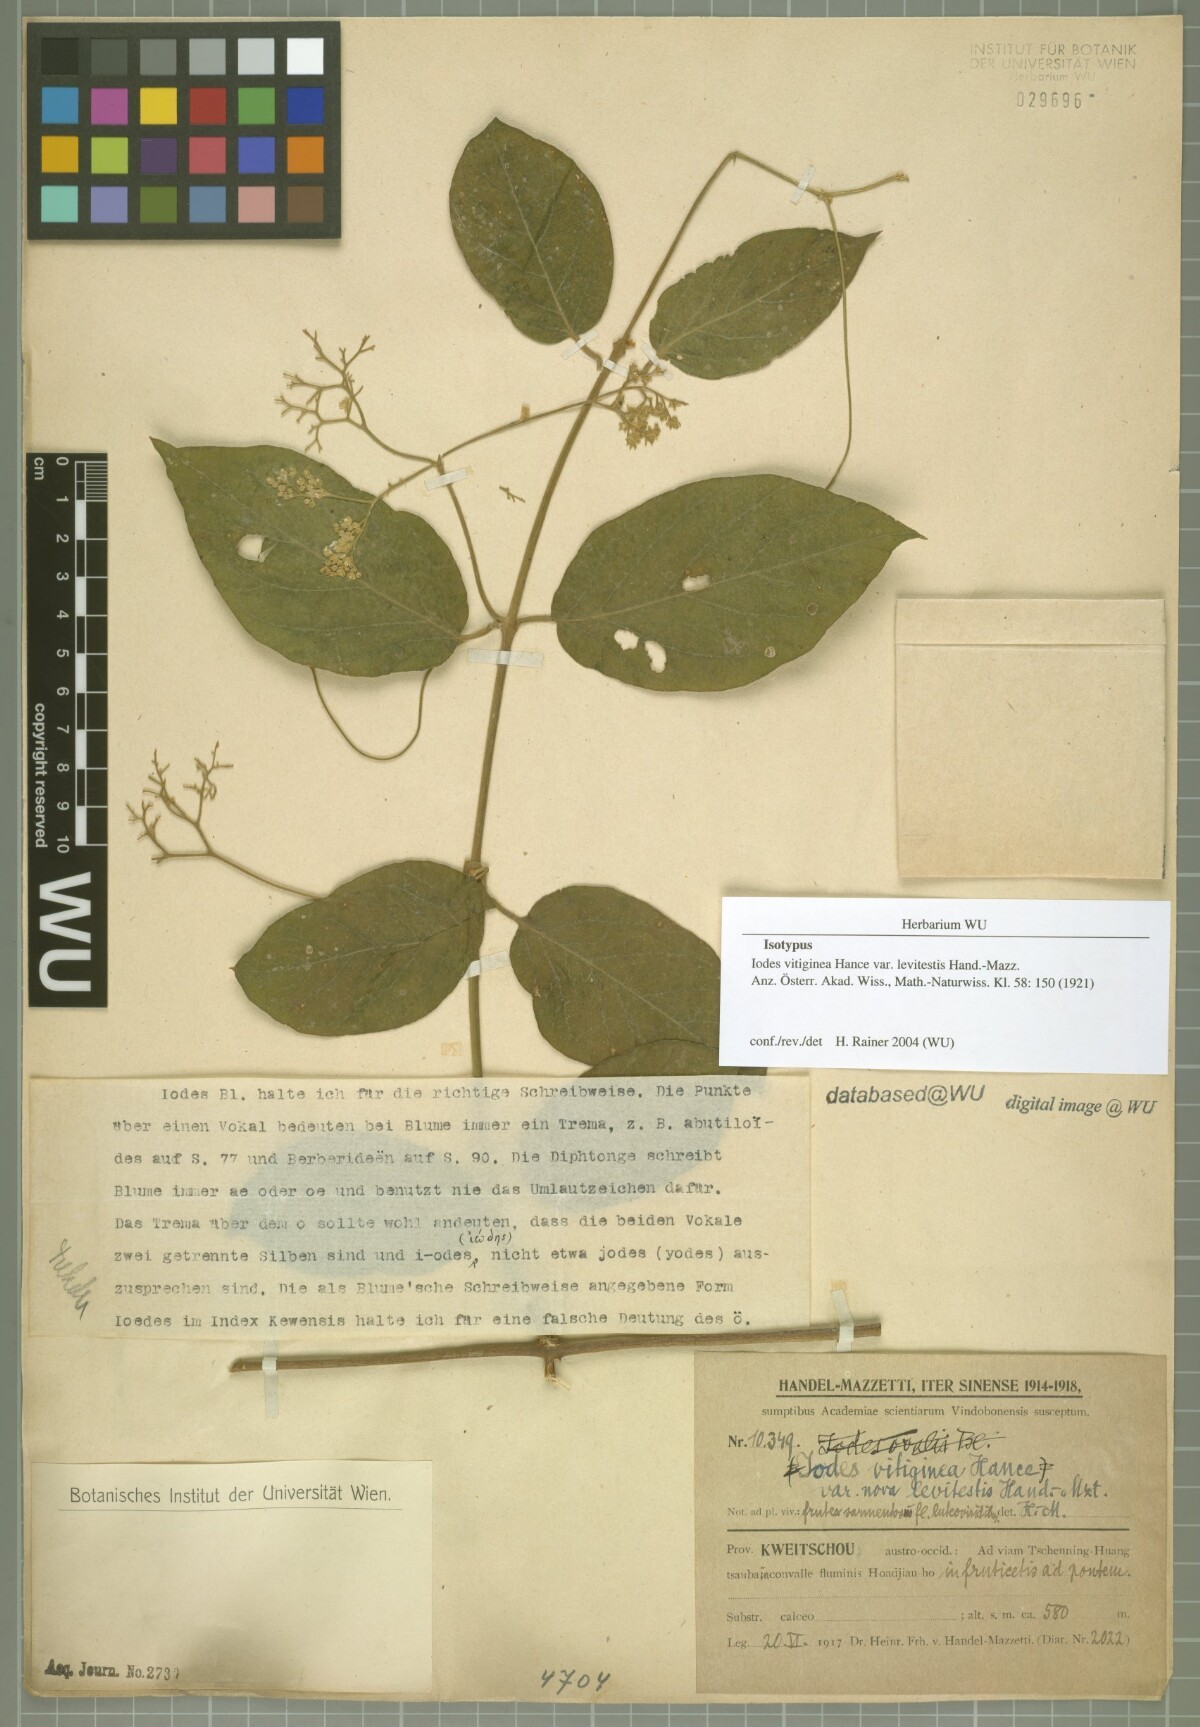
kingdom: Plantae
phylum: Tracheophyta
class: Magnoliopsida
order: Icacinales
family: Icacinaceae
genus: Iodes
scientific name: Iodes seguinii
